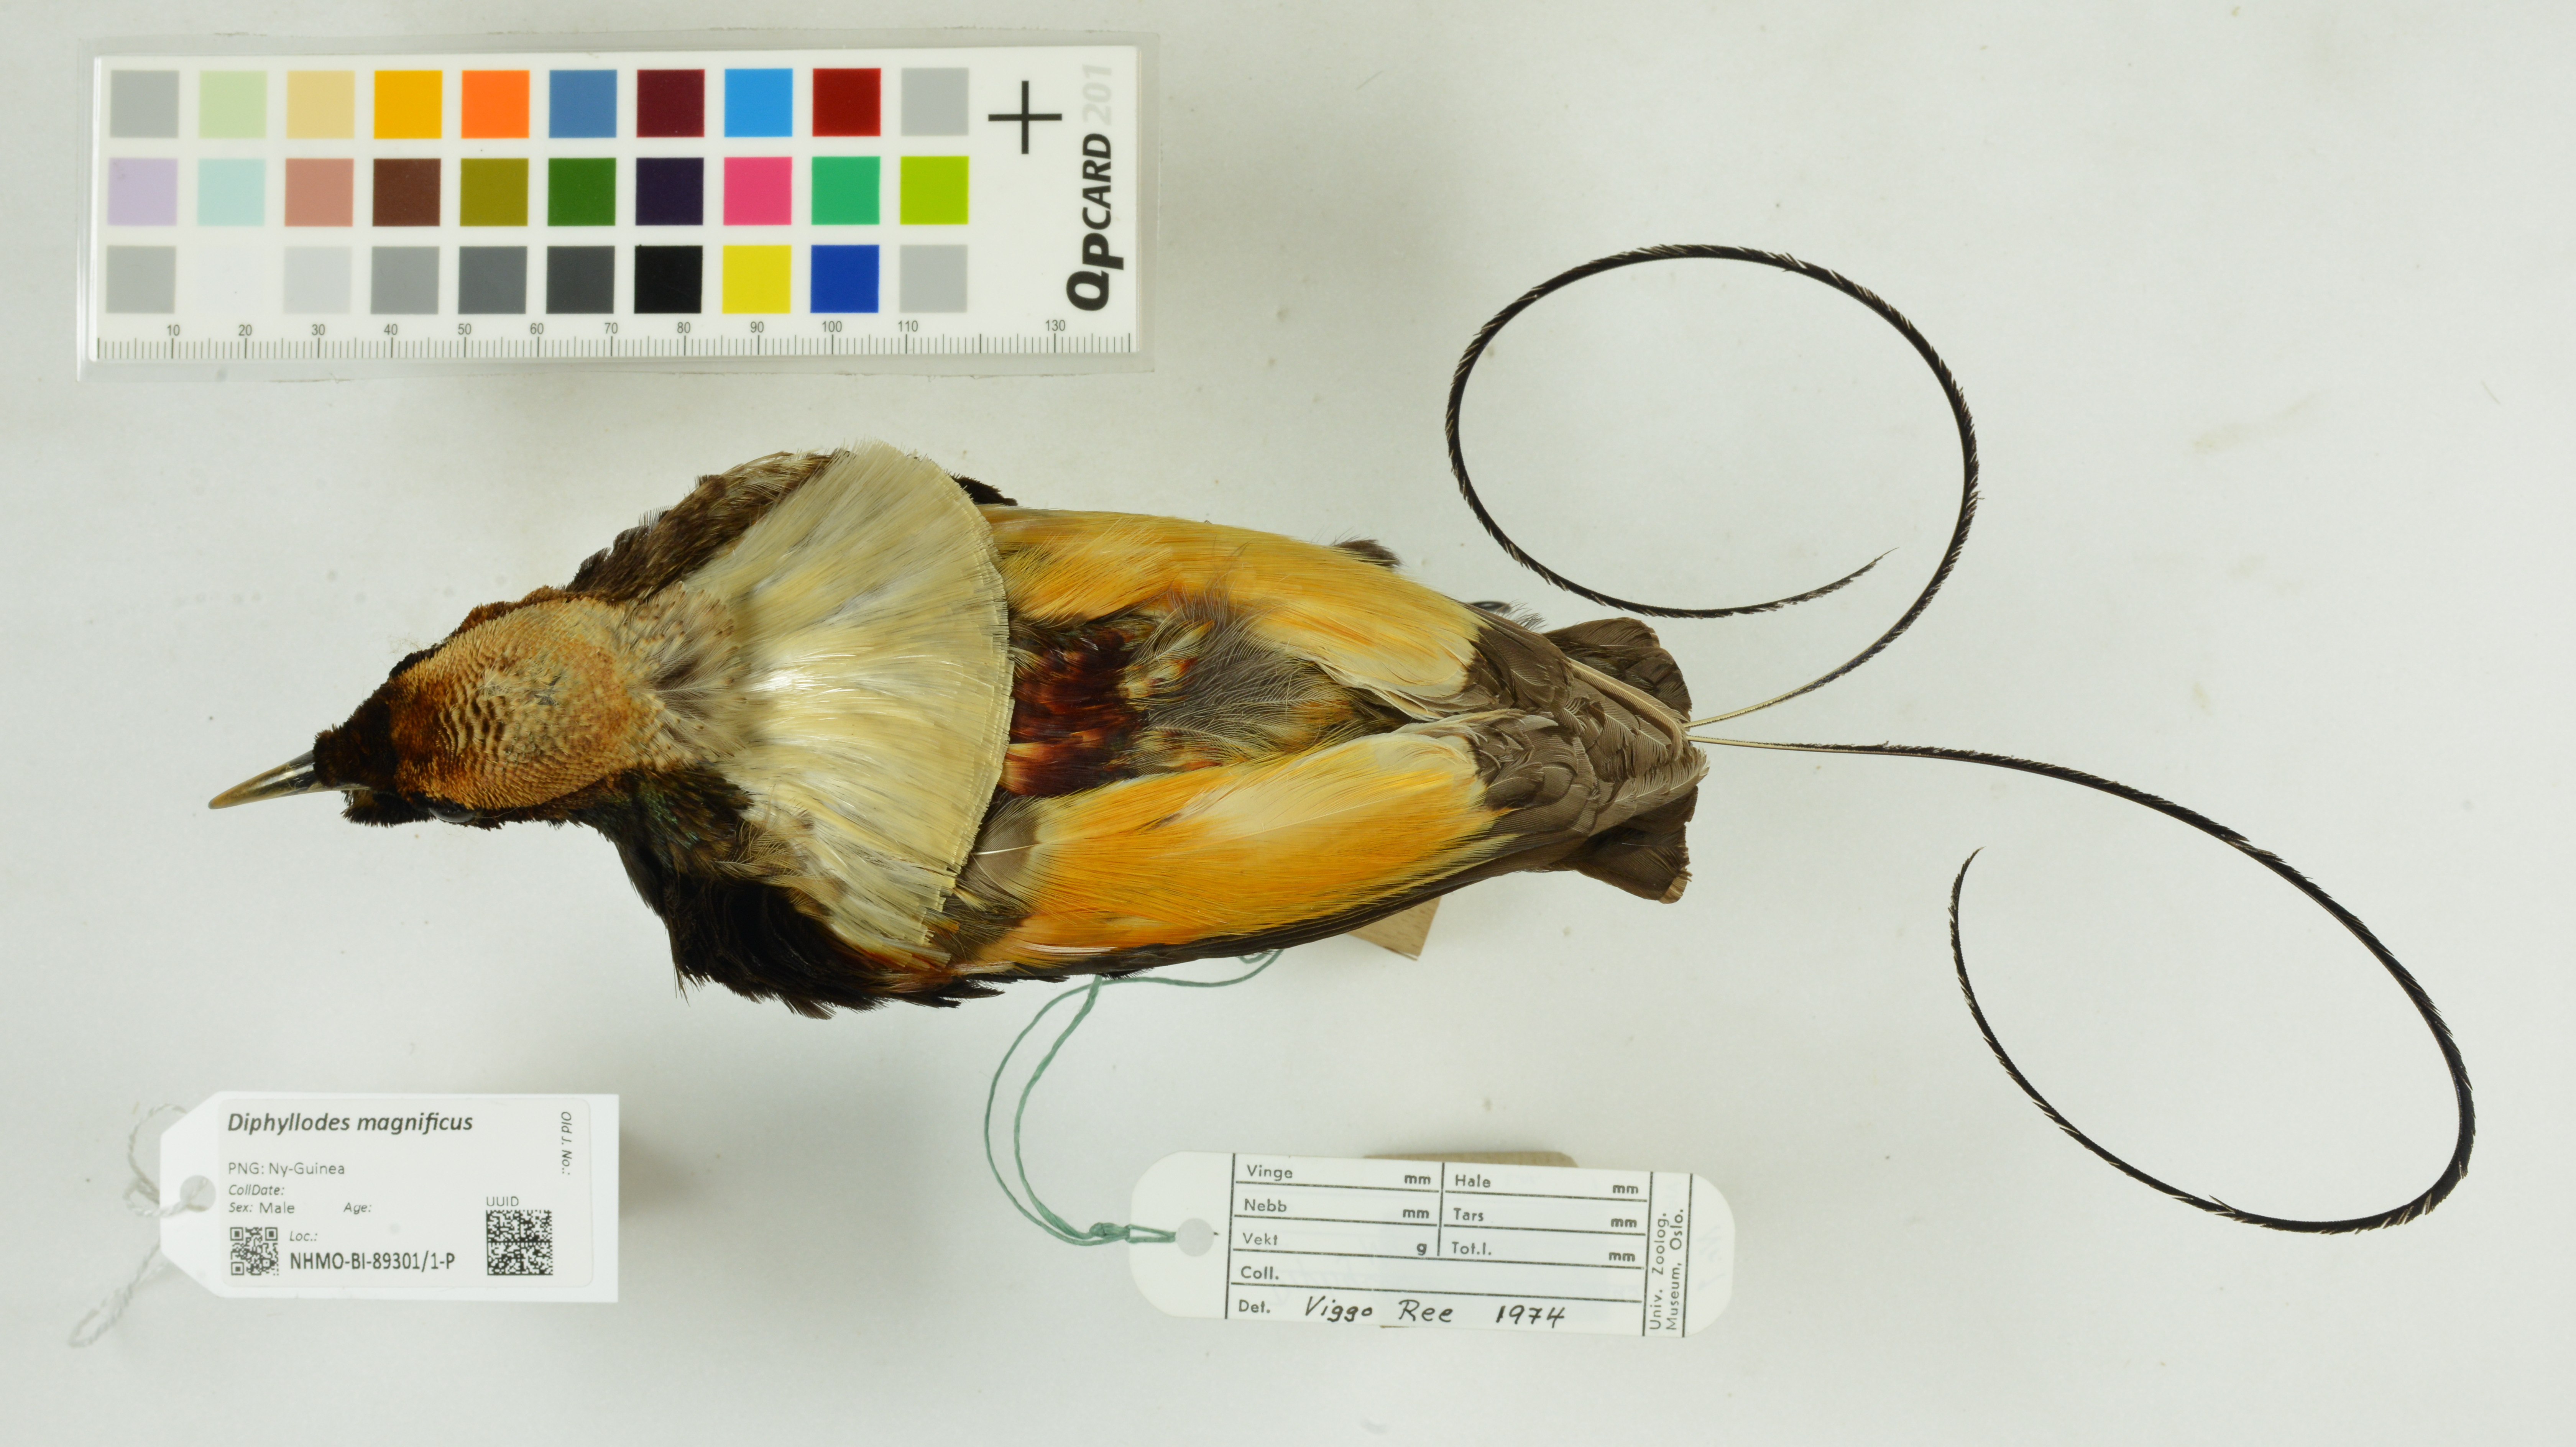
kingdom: Animalia
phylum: Chordata
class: Aves
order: Passeriformes
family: Paradisaeidae
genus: Diphyllodes
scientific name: Diphyllodes magnificus
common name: Magnificent bird-of-paradise
